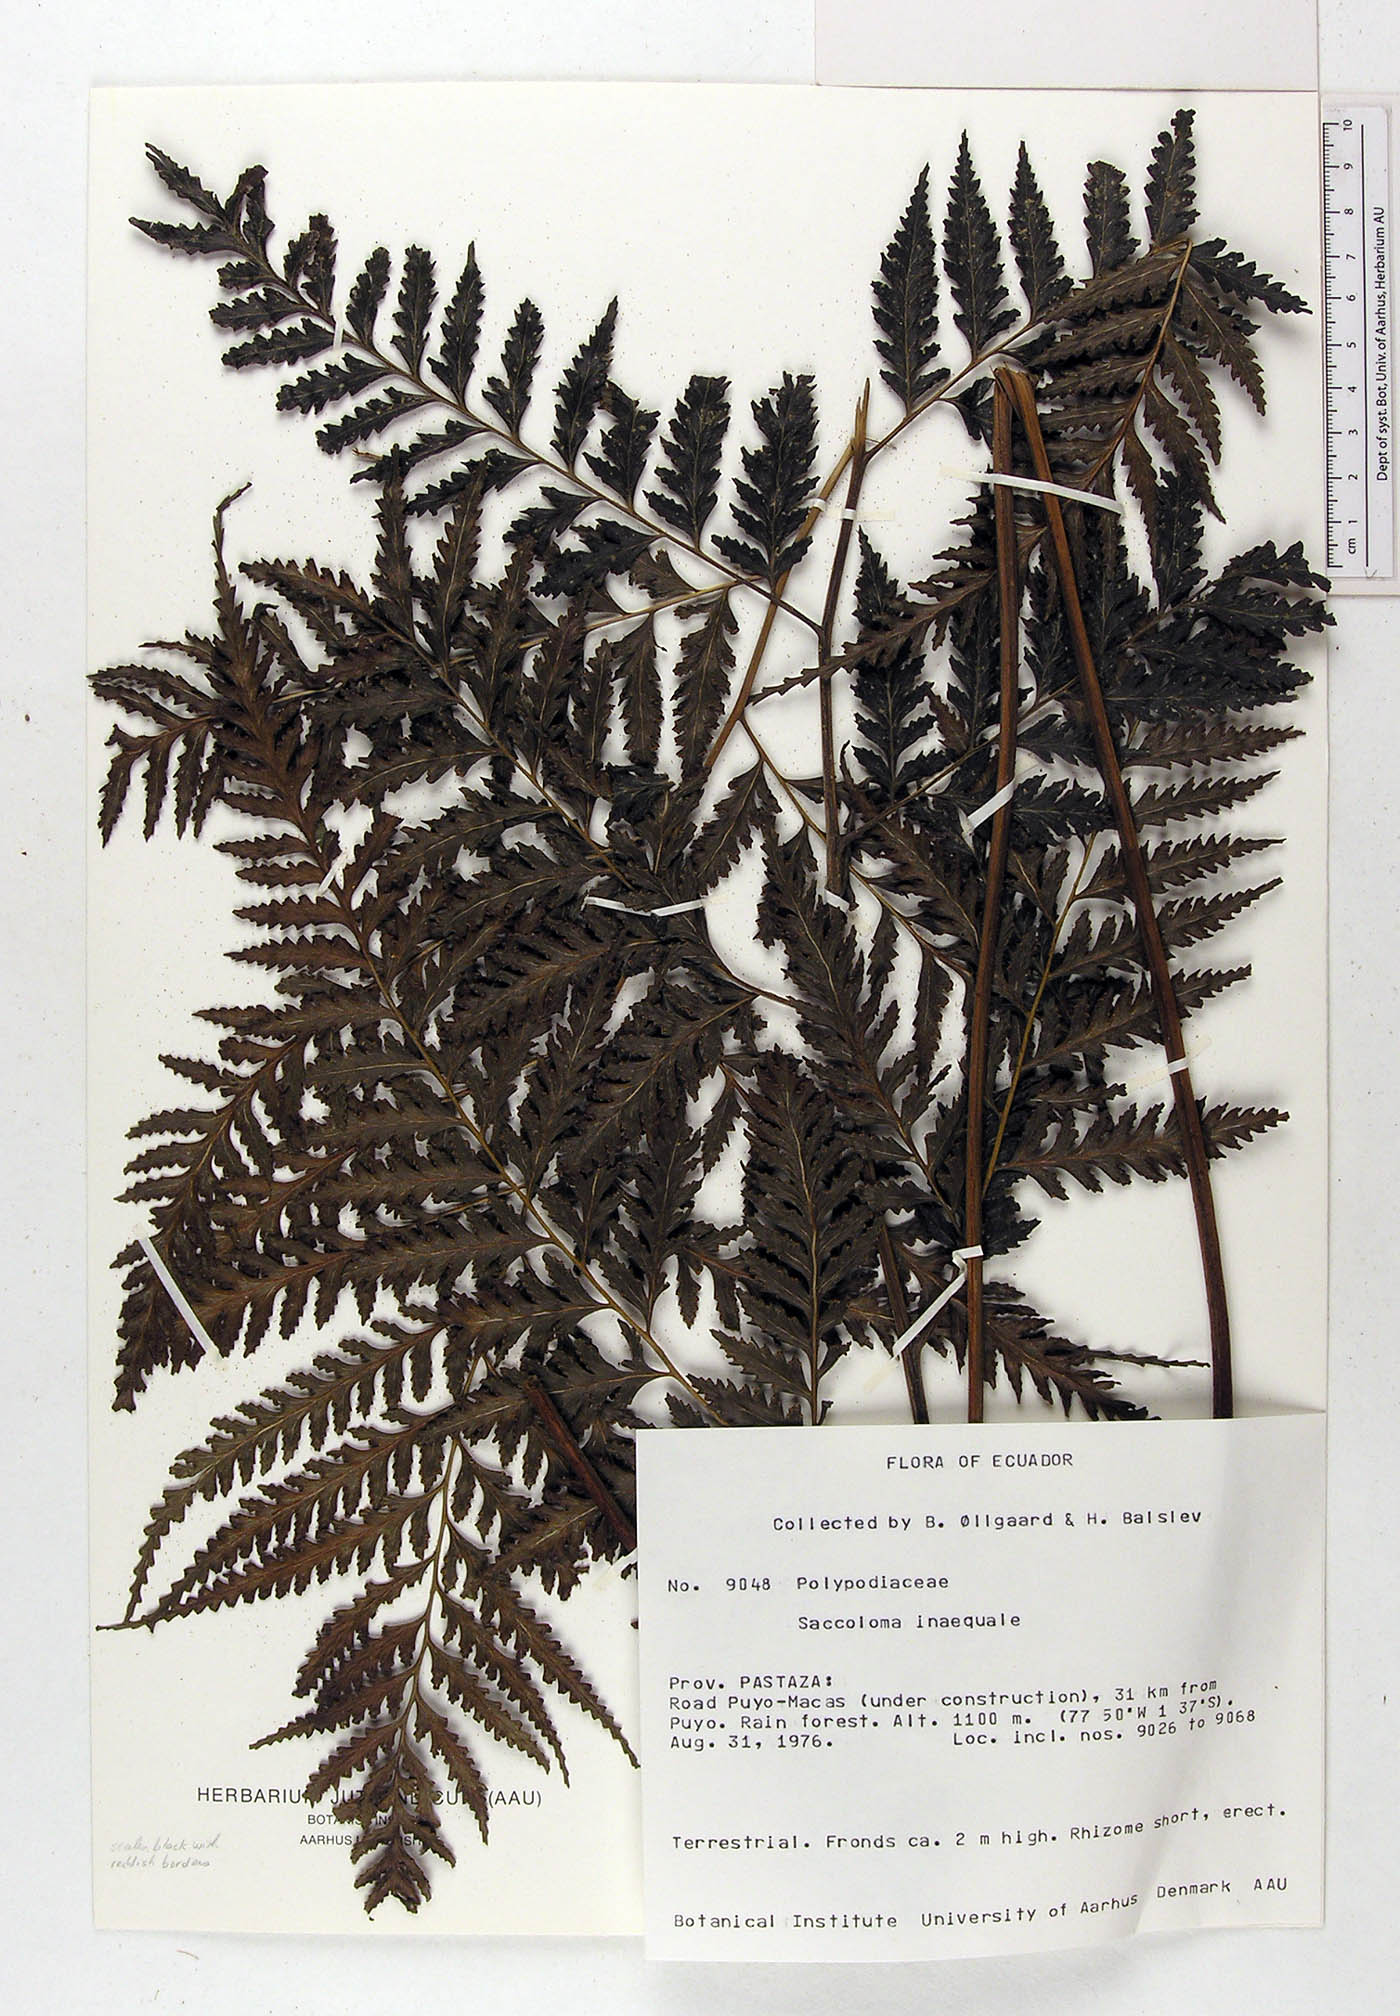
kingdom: Plantae
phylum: Tracheophyta
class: Polypodiopsida
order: Polypodiales
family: Saccolomataceae
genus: Saccoloma
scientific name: Saccoloma inaequale
